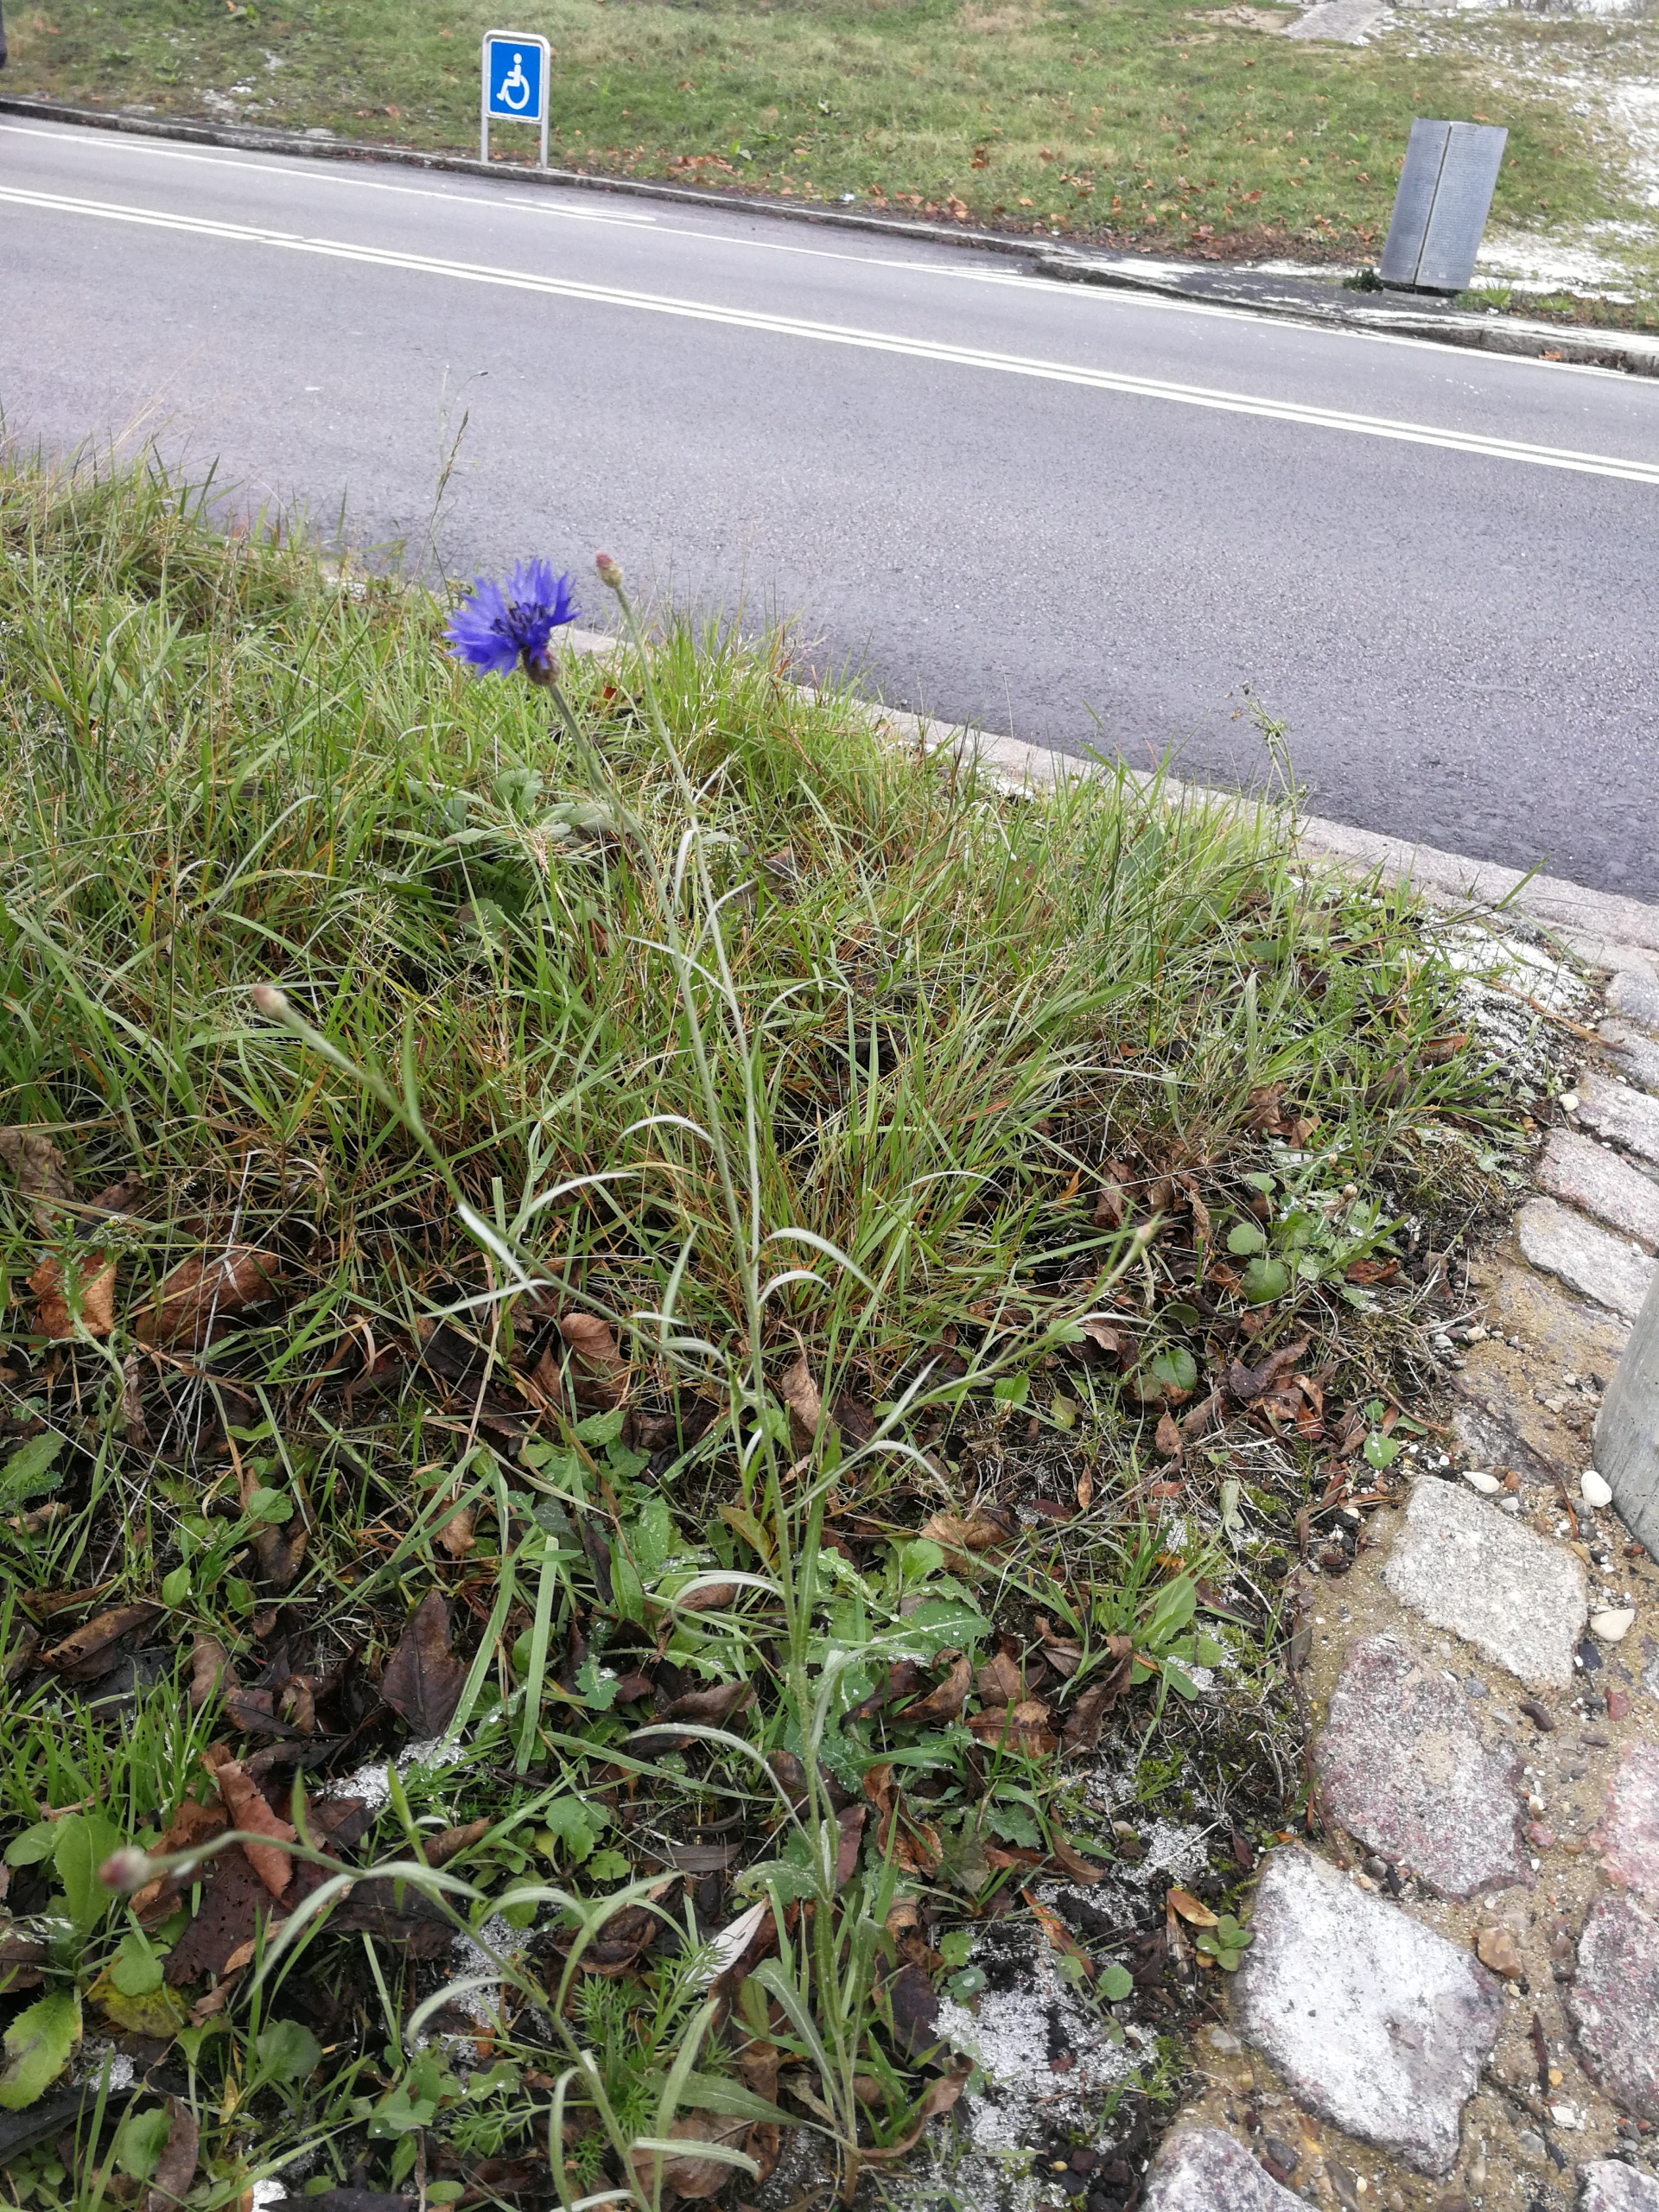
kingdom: Plantae
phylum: Tracheophyta
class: Magnoliopsida
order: Asterales
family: Asteraceae
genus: Centaurea
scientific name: Centaurea cyanus
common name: Kornblomst
